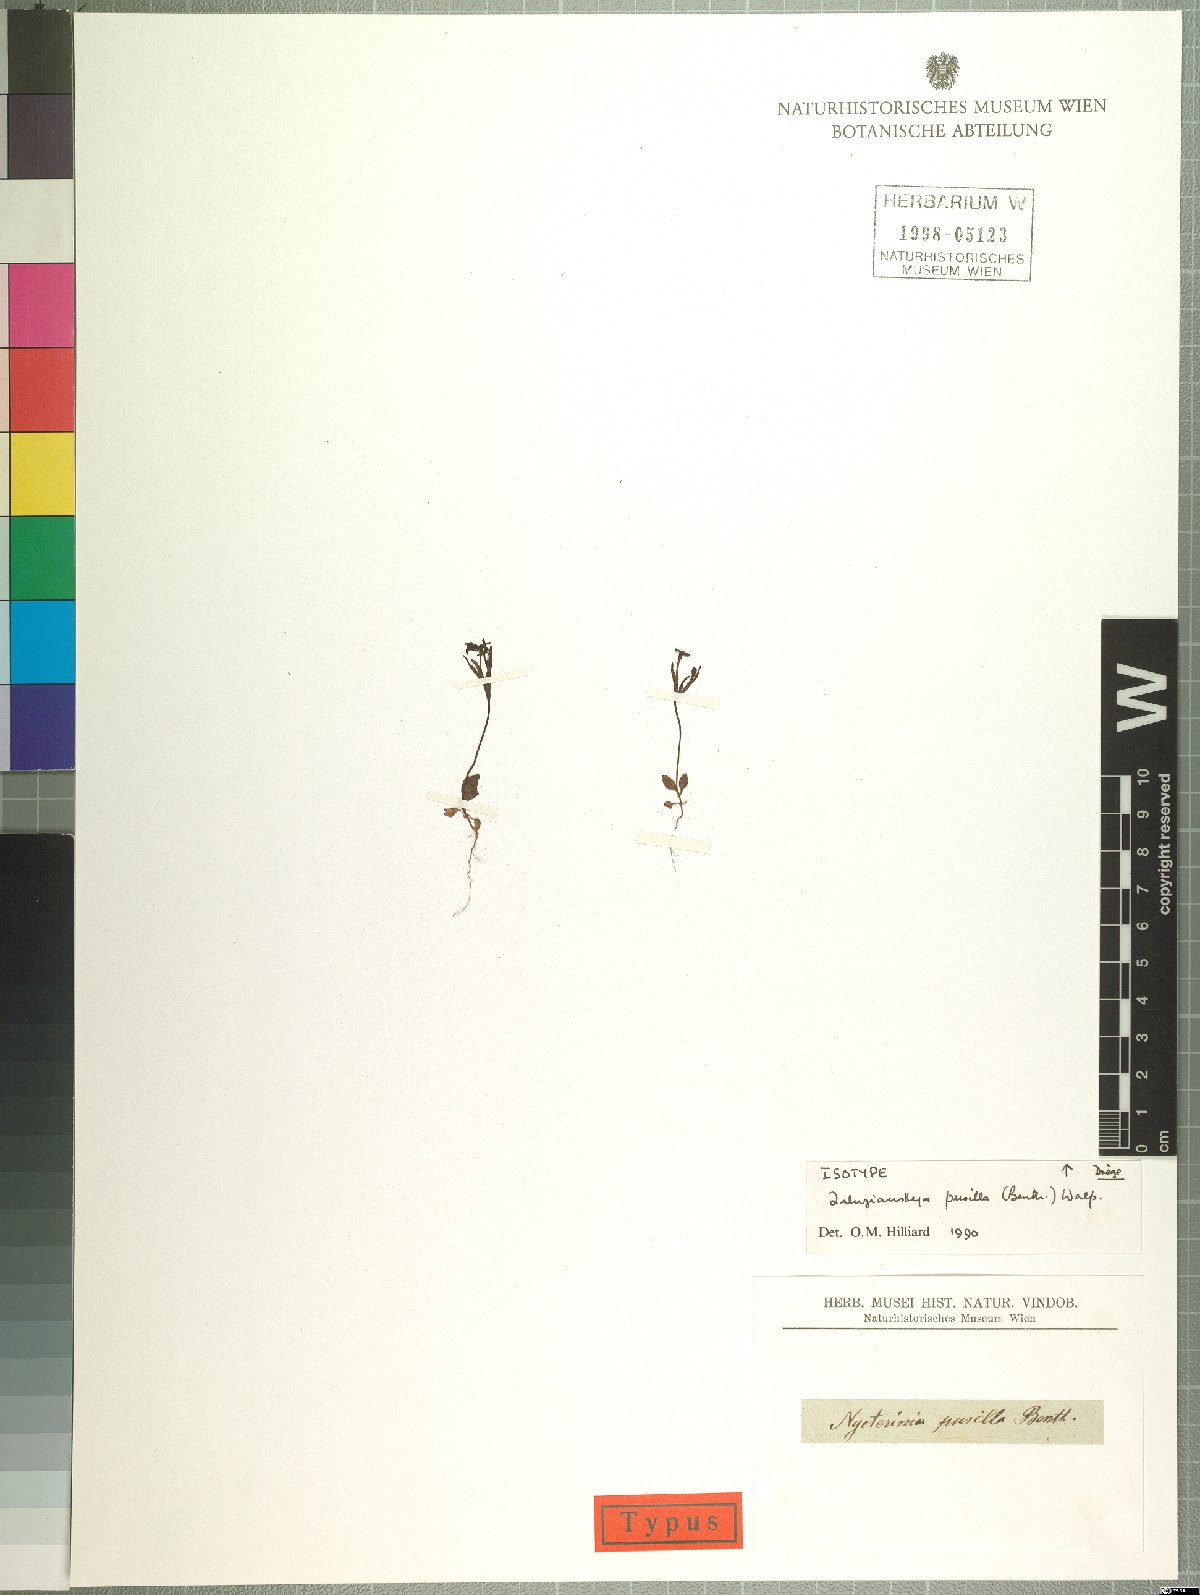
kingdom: Plantae
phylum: Tracheophyta
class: Magnoliopsida
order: Lamiales
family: Scrophulariaceae
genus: Zaluzianskya
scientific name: Zaluzianskya pusilla
